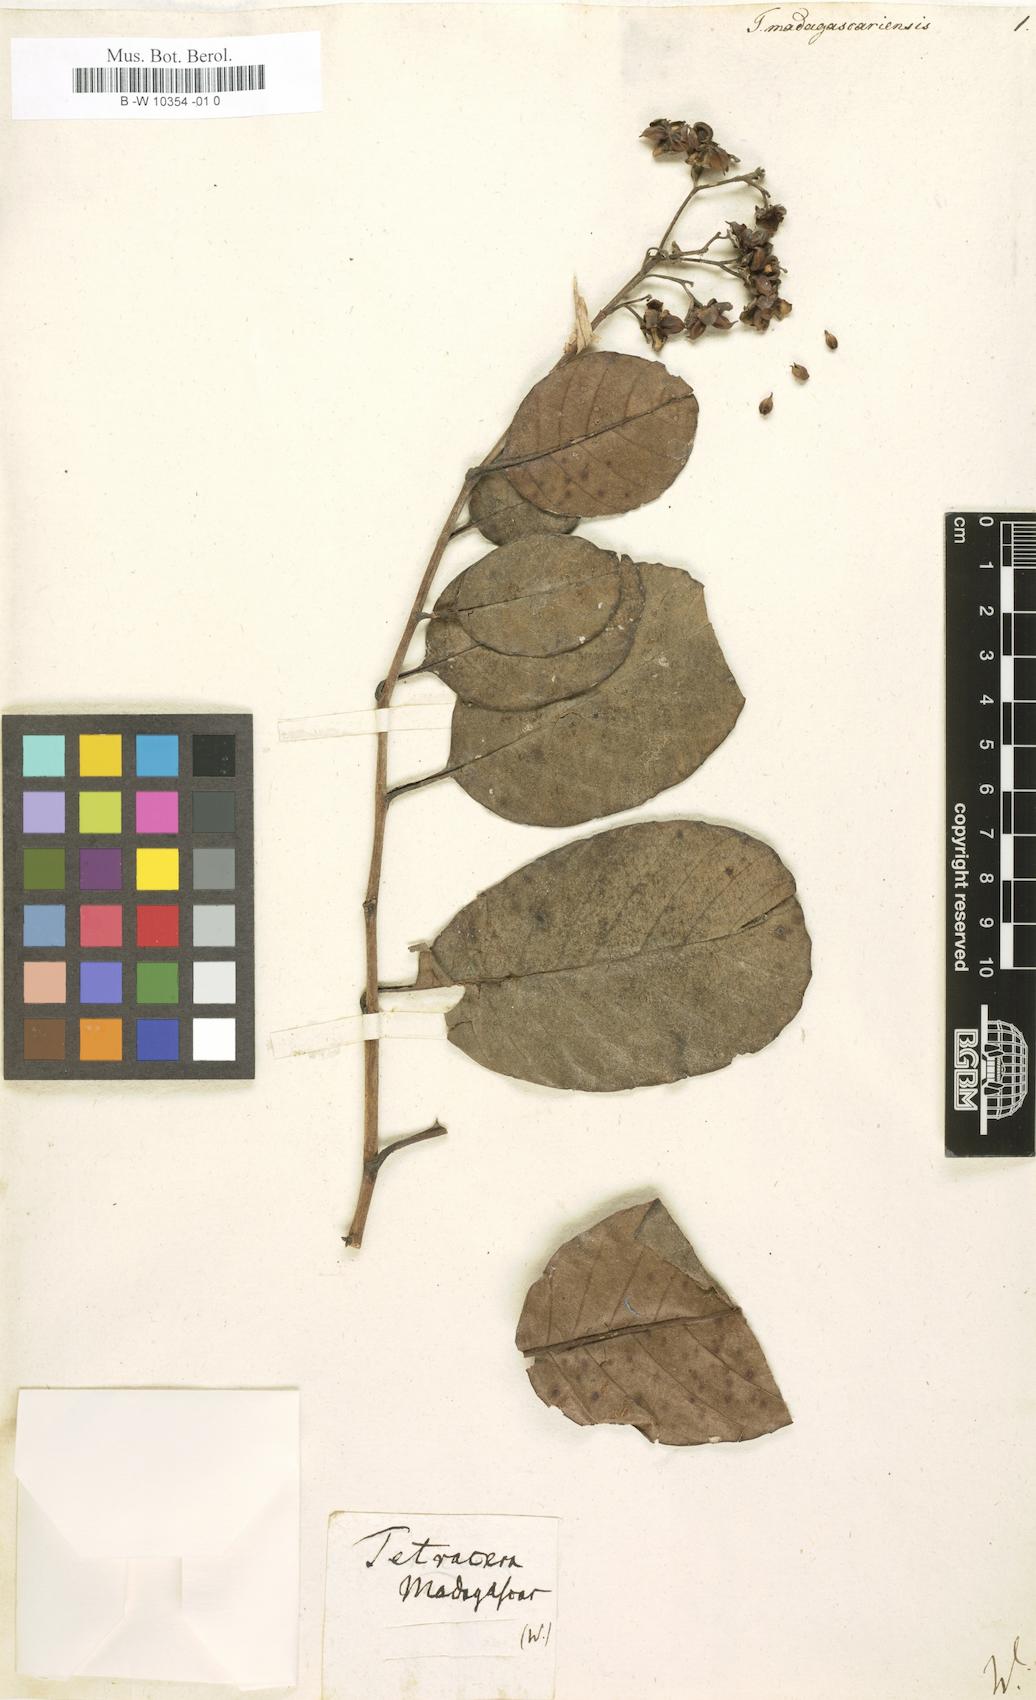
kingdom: Plantae
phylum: Tracheophyta
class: Magnoliopsida
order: Dilleniales
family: Dilleniaceae
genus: Tetracera
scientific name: Tetracera madagascariensis
